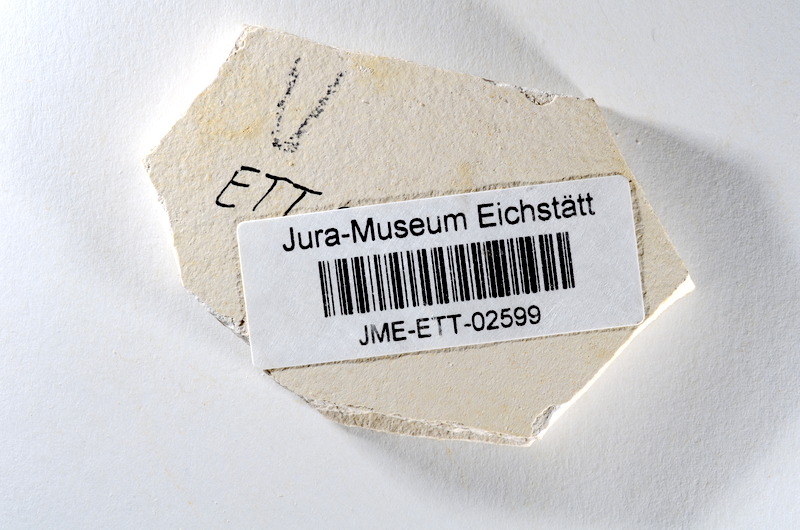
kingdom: Animalia
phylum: Chordata
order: Salmoniformes
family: Orthogonikleithridae
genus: Orthogonikleithrus
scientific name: Orthogonikleithrus hoelli
